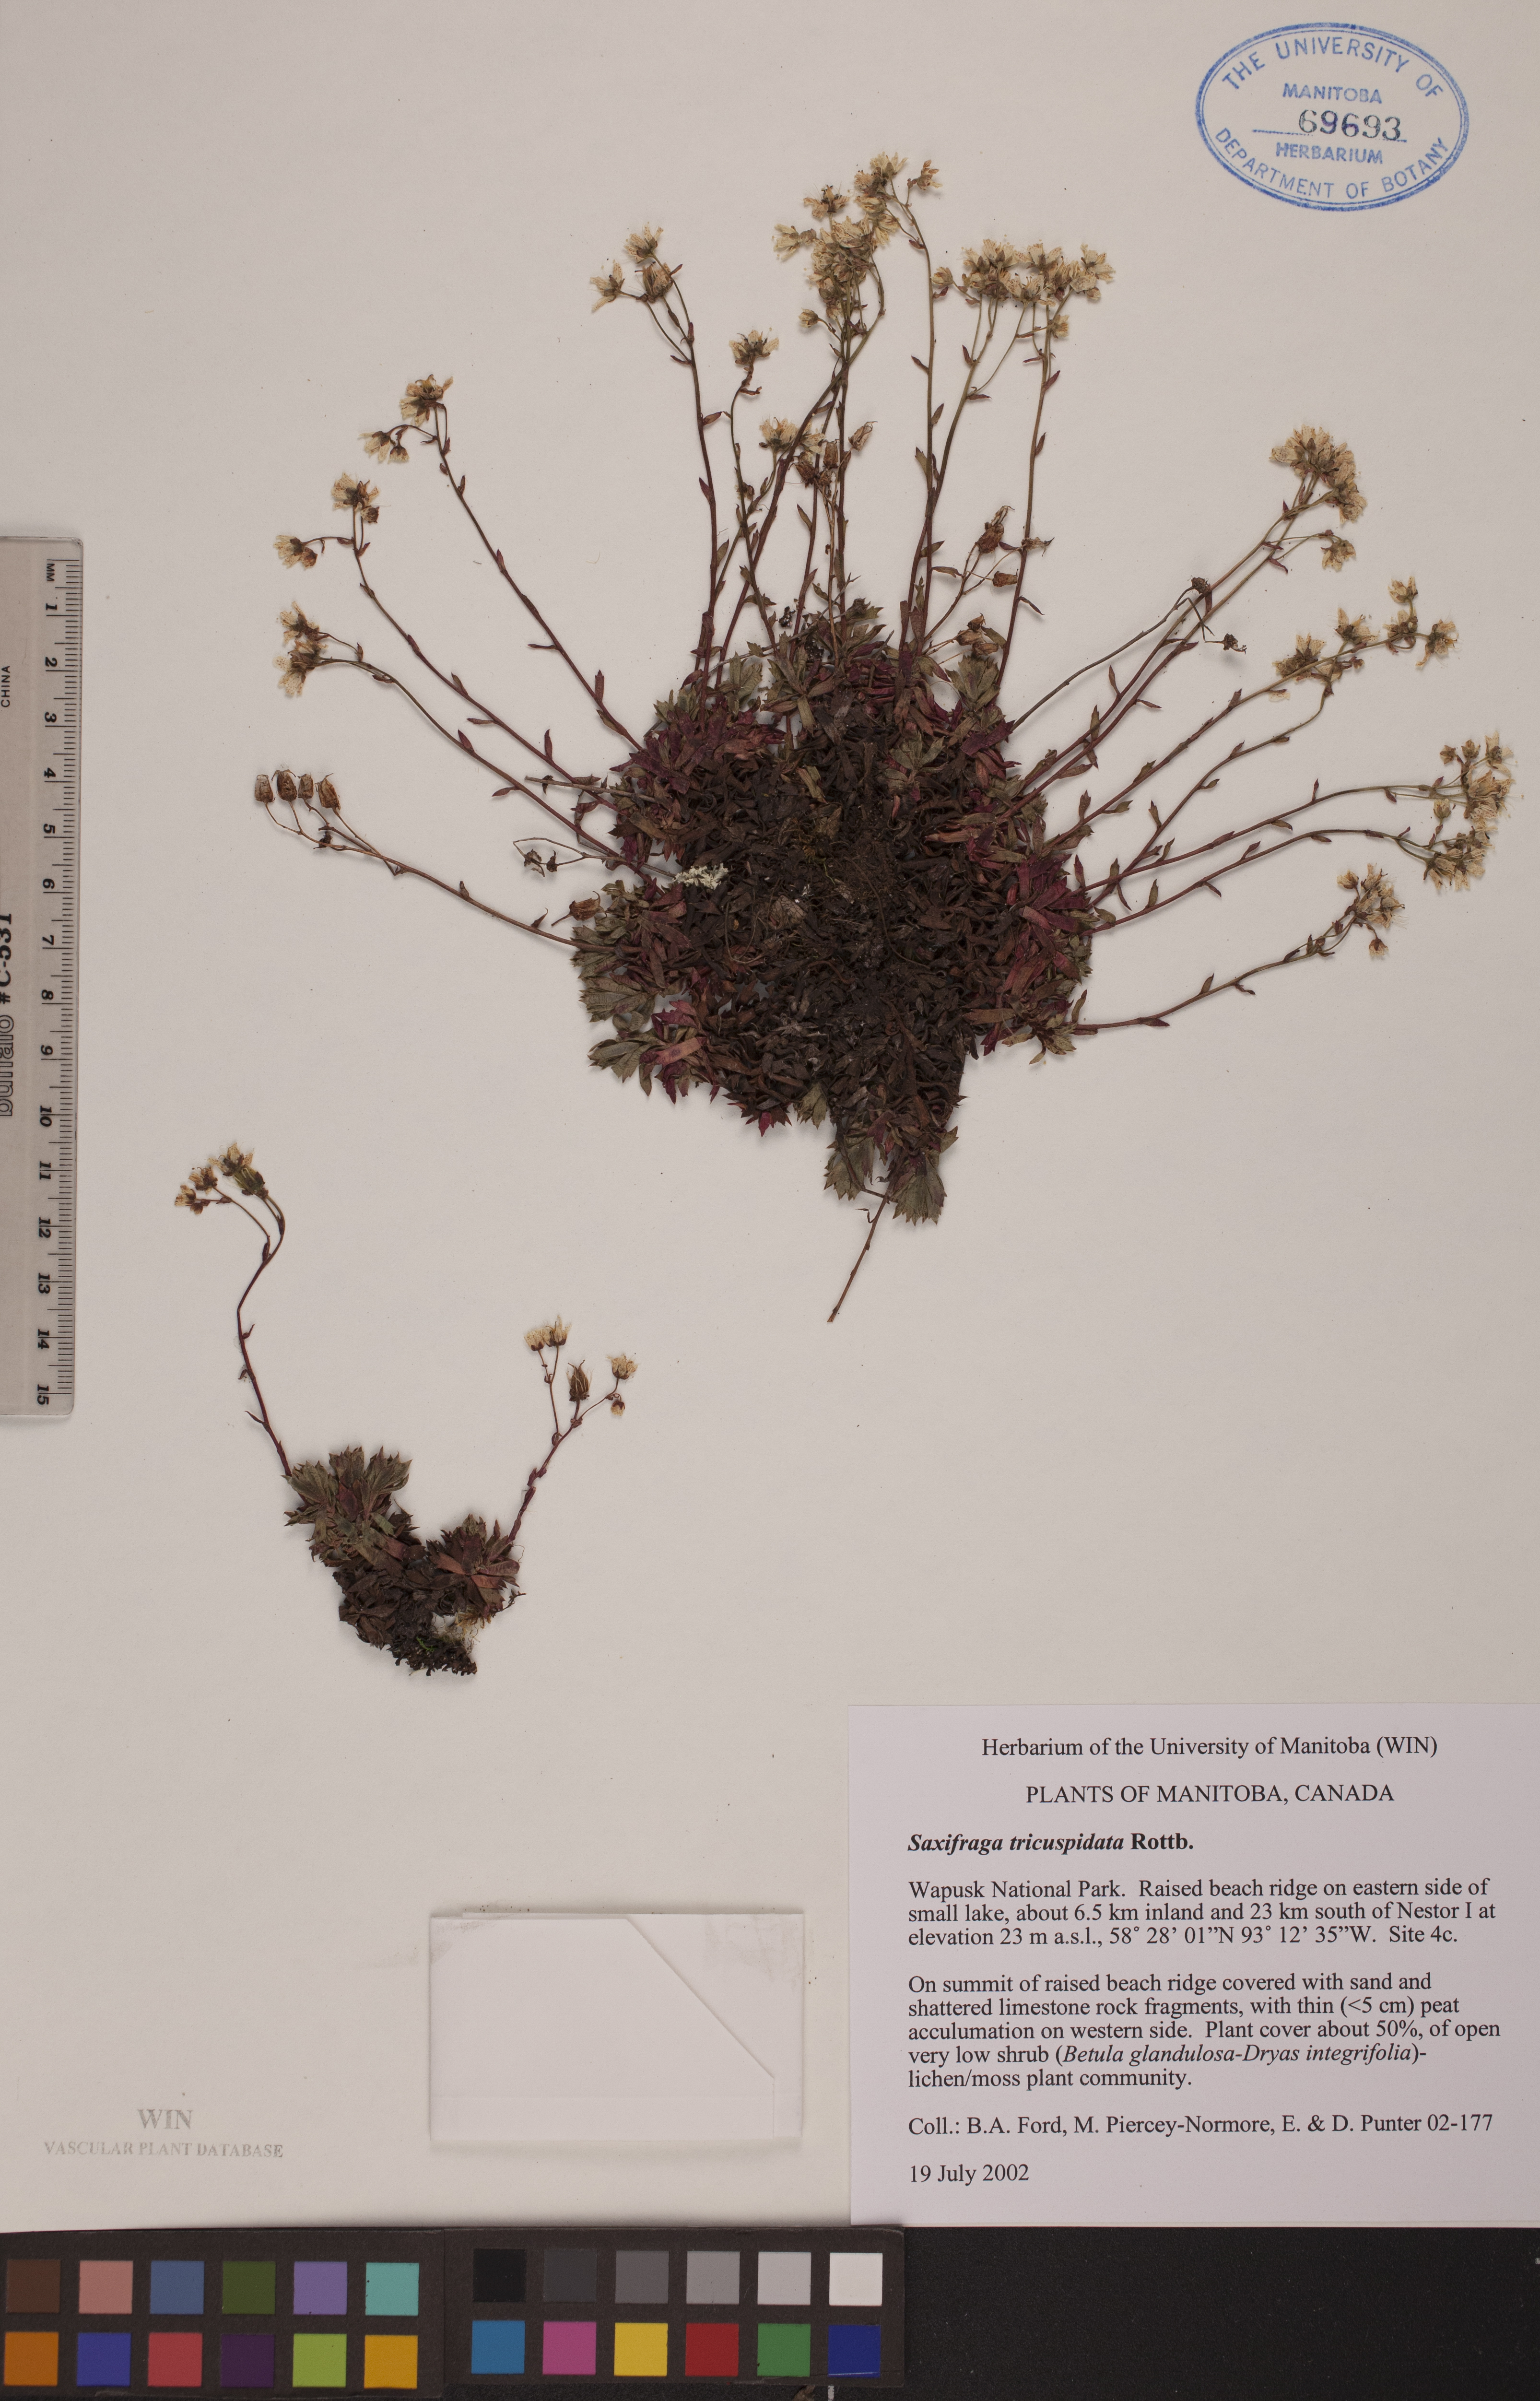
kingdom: Plantae
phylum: Tracheophyta
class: Magnoliopsida
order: Saxifragales
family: Saxifragaceae
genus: Saxifraga
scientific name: Saxifraga tricuspidata
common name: Prickly saxifrage
